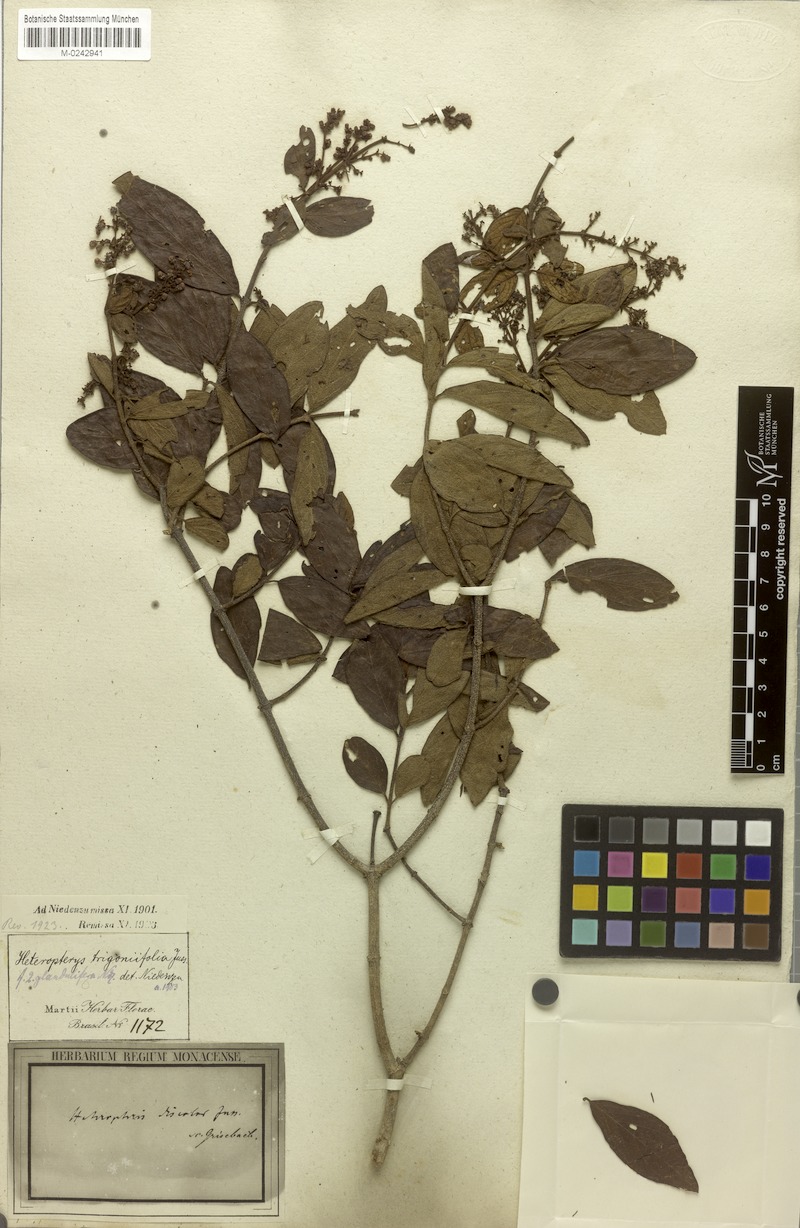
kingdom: Plantae
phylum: Tracheophyta
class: Magnoliopsida
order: Malpighiales
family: Malpighiaceae
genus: Heteropterys
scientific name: Heteropterys trigoniifolia
